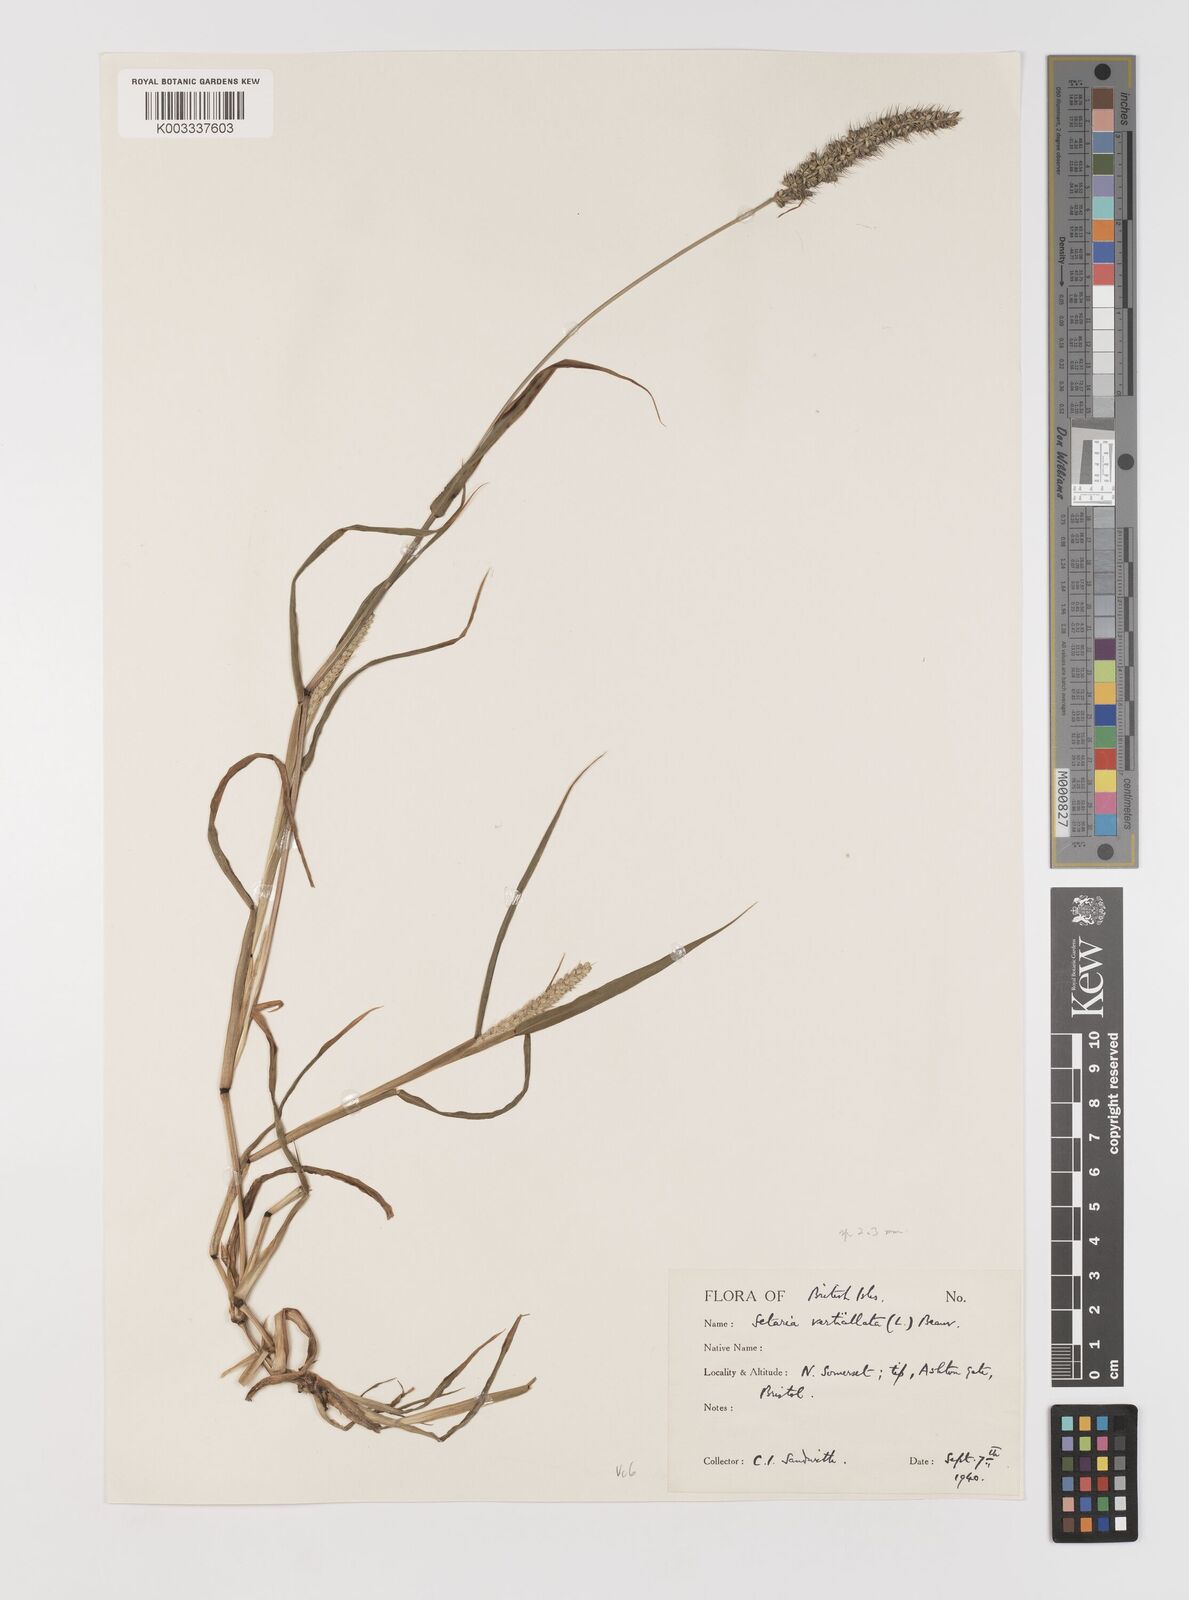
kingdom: Plantae
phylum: Tracheophyta
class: Liliopsida
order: Poales
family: Poaceae
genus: Setaria
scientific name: Setaria verticillata
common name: Hooked bristlegrass
